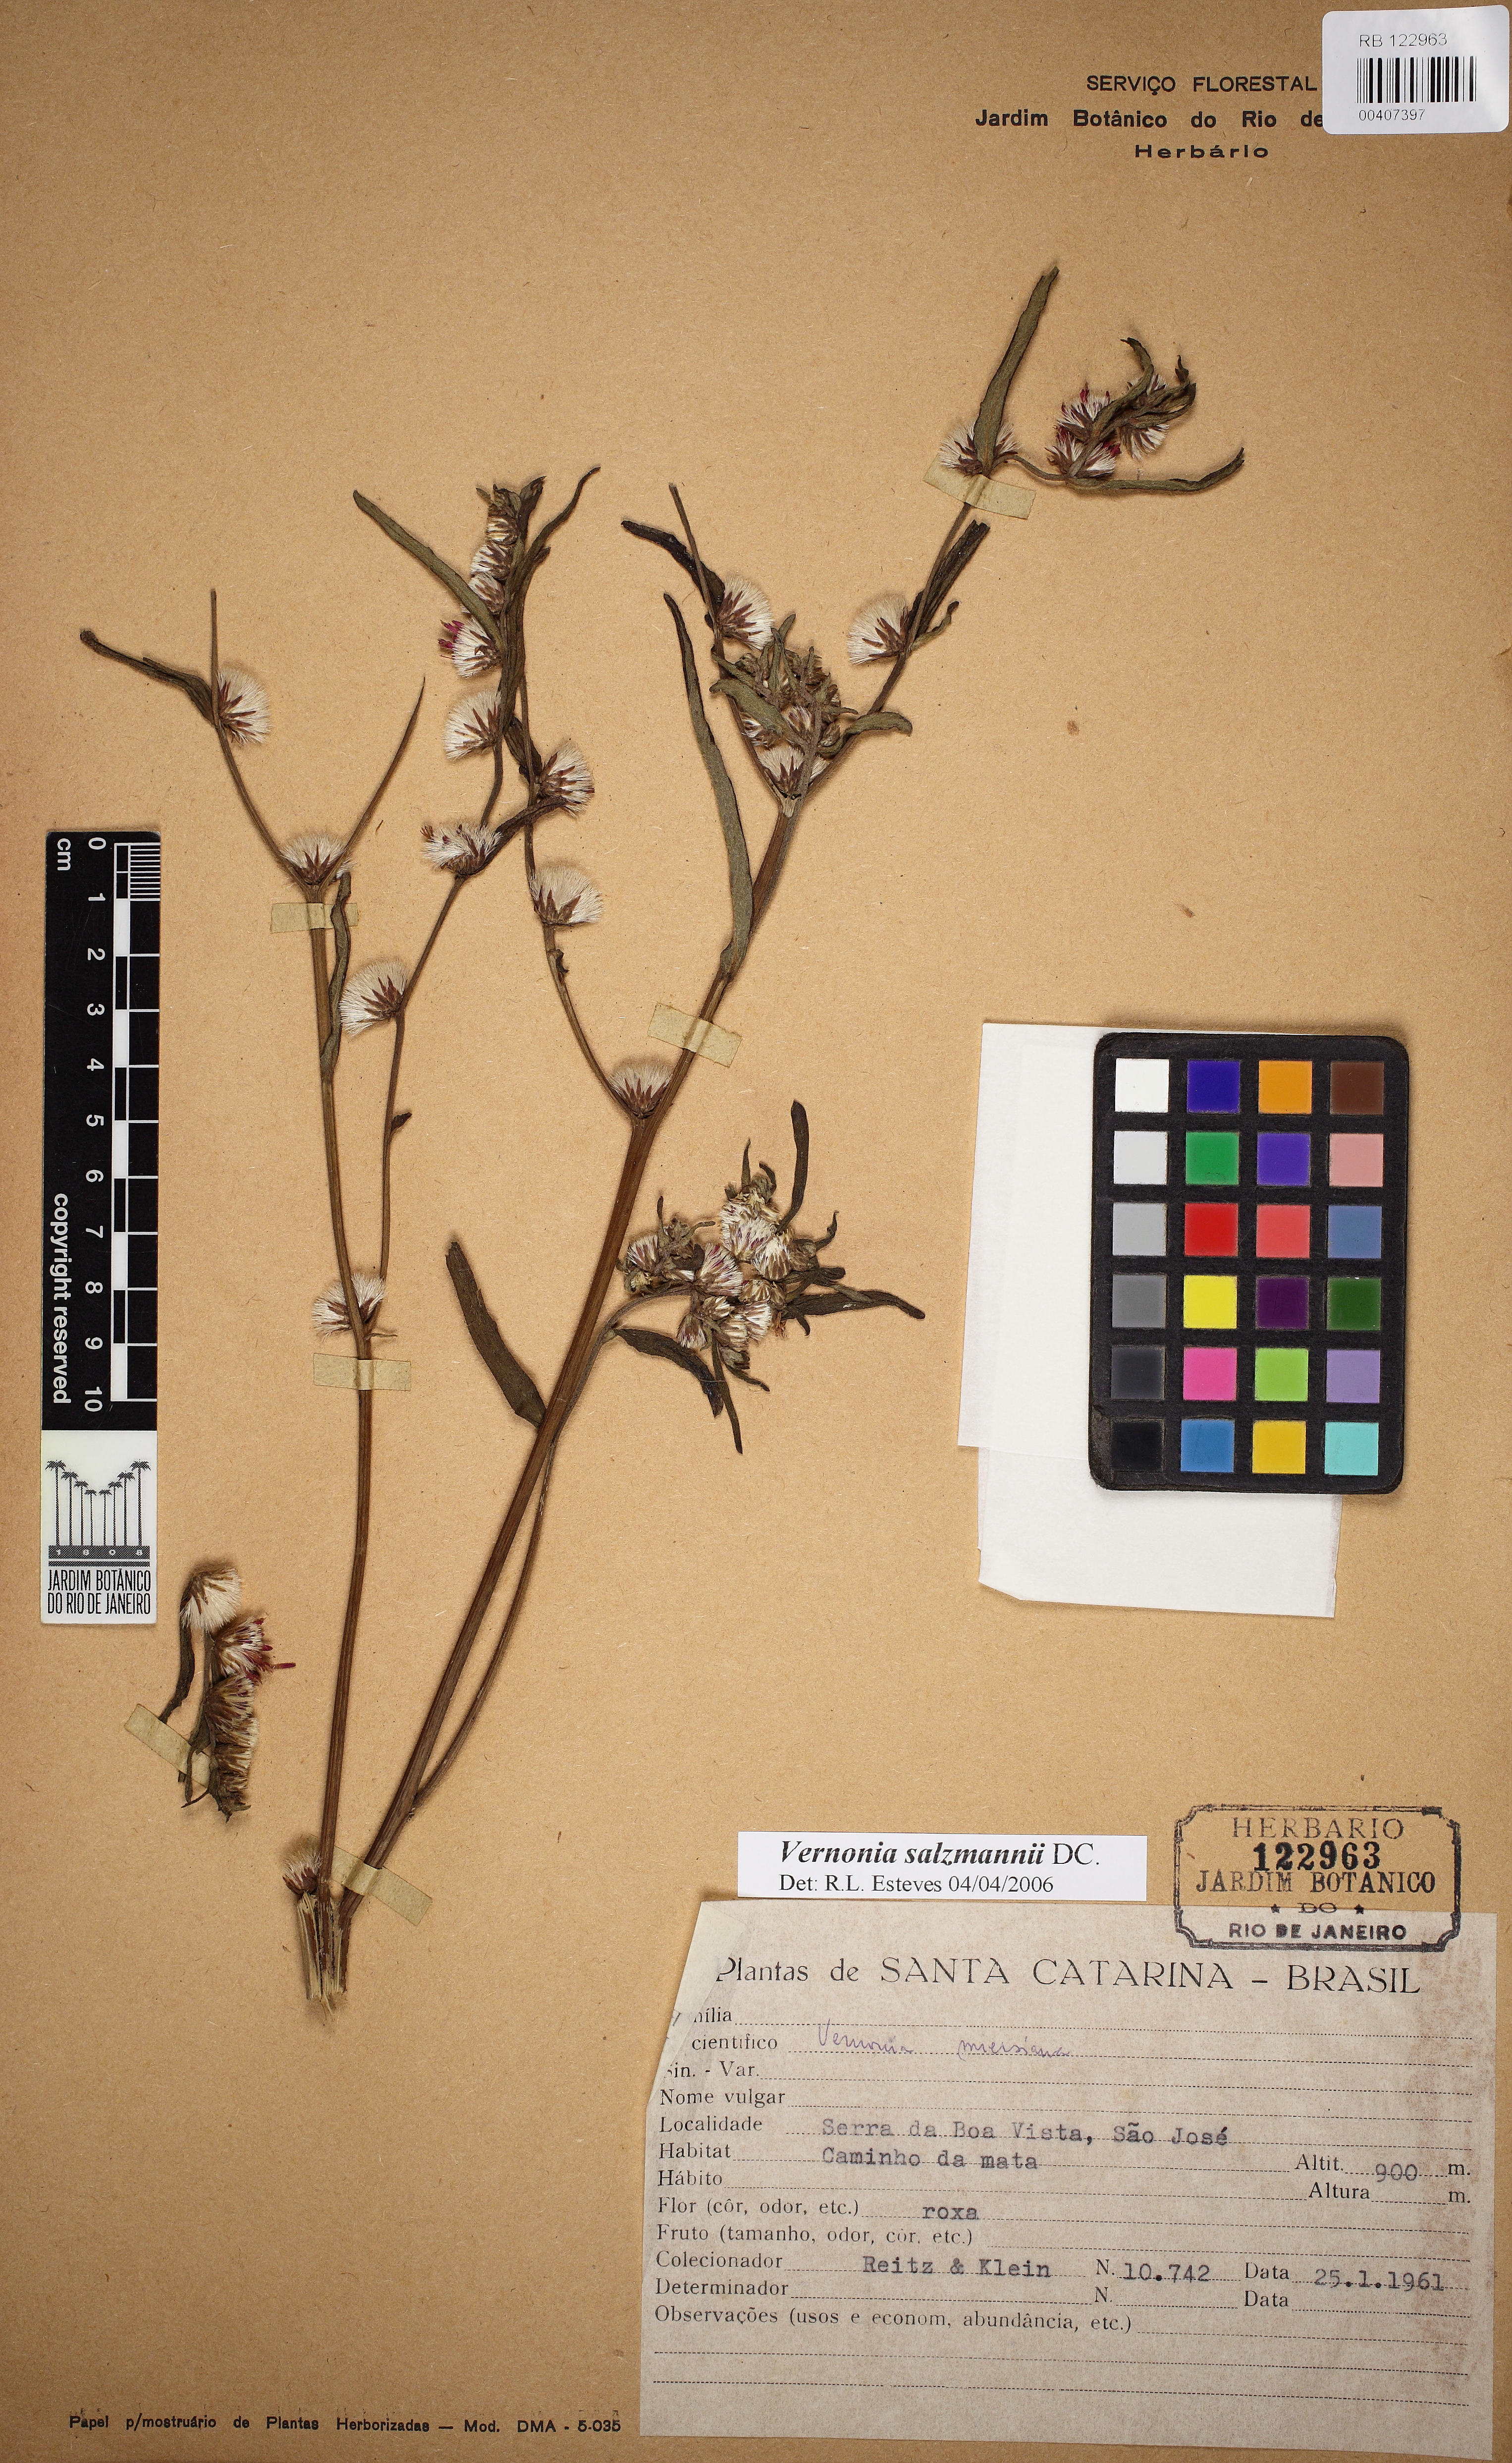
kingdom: Plantae
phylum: Tracheophyta
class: Magnoliopsida
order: Asterales
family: Asteraceae
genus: Lepidaploa
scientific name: Lepidaploa salzmannii
